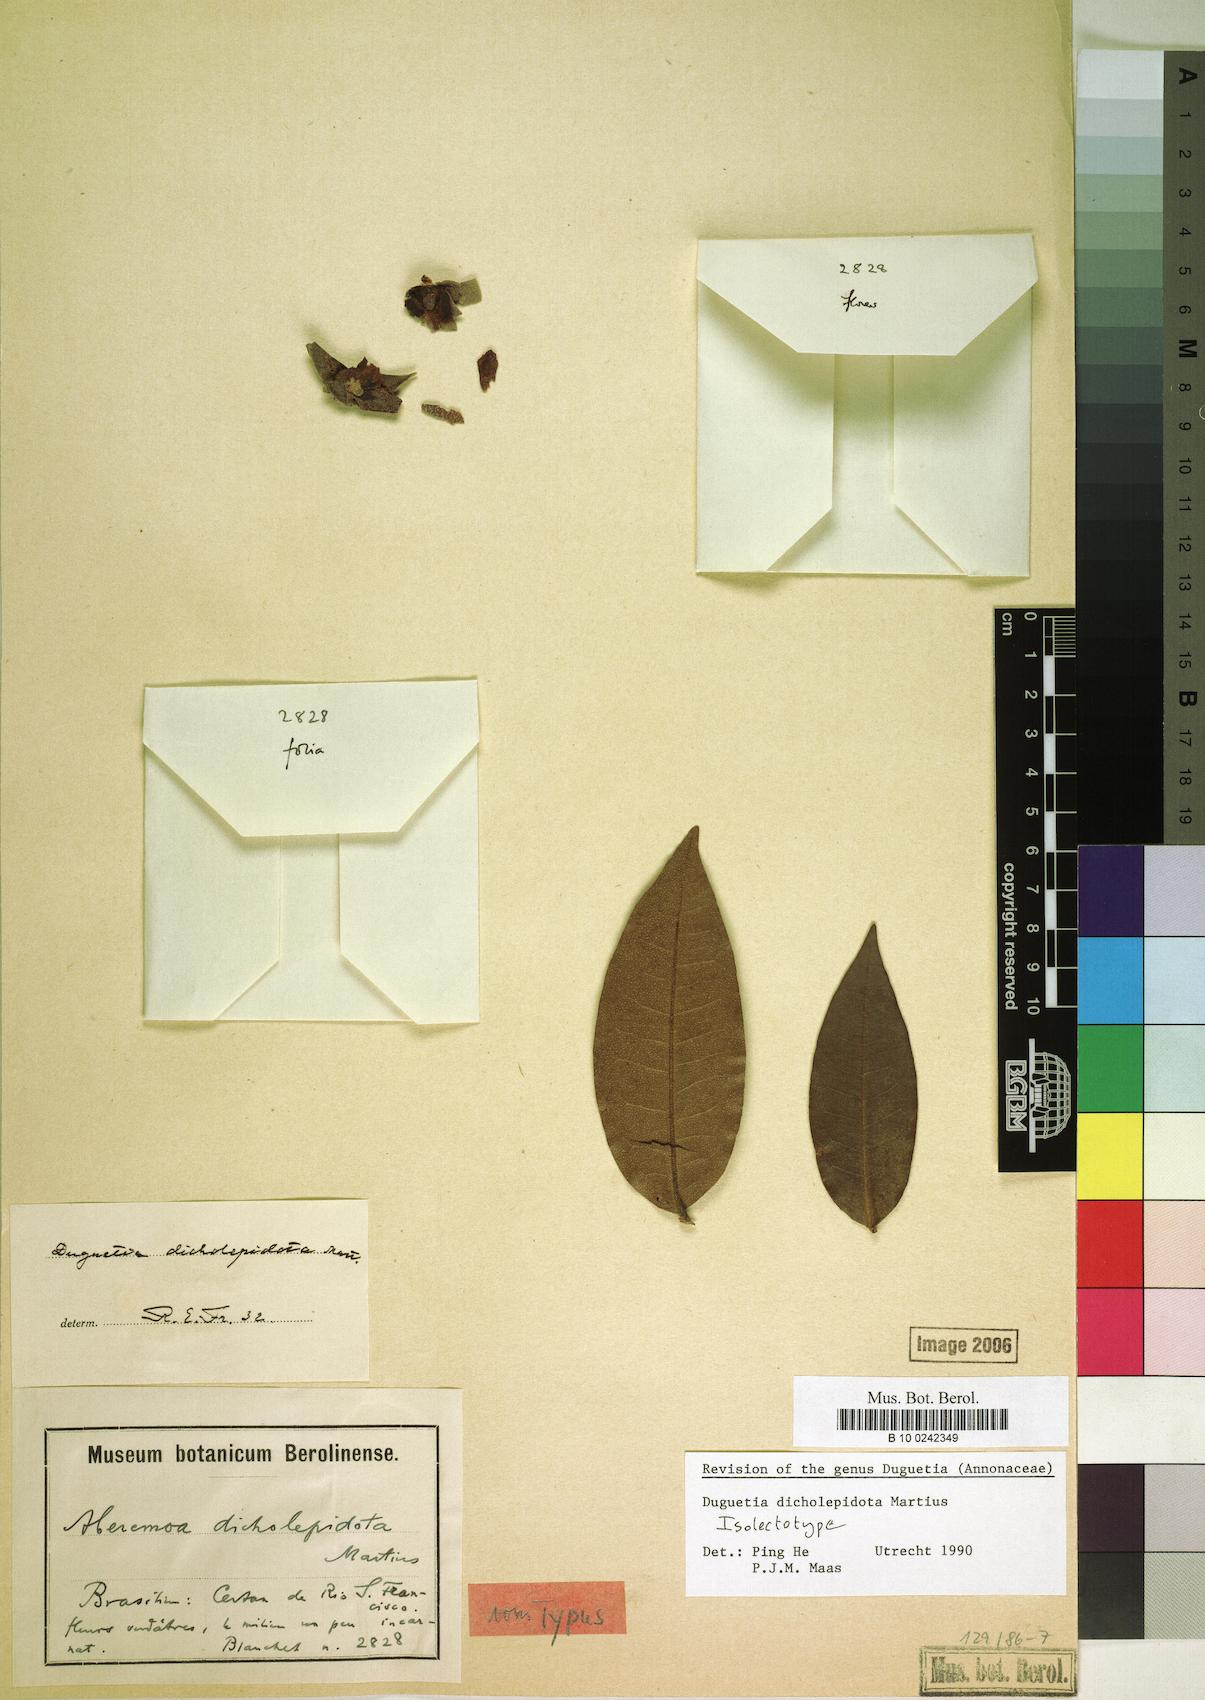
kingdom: Plantae
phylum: Tracheophyta
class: Magnoliopsida
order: Magnoliales
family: Annonaceae
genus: Duguetia
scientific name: Duguetia dicholepidota
